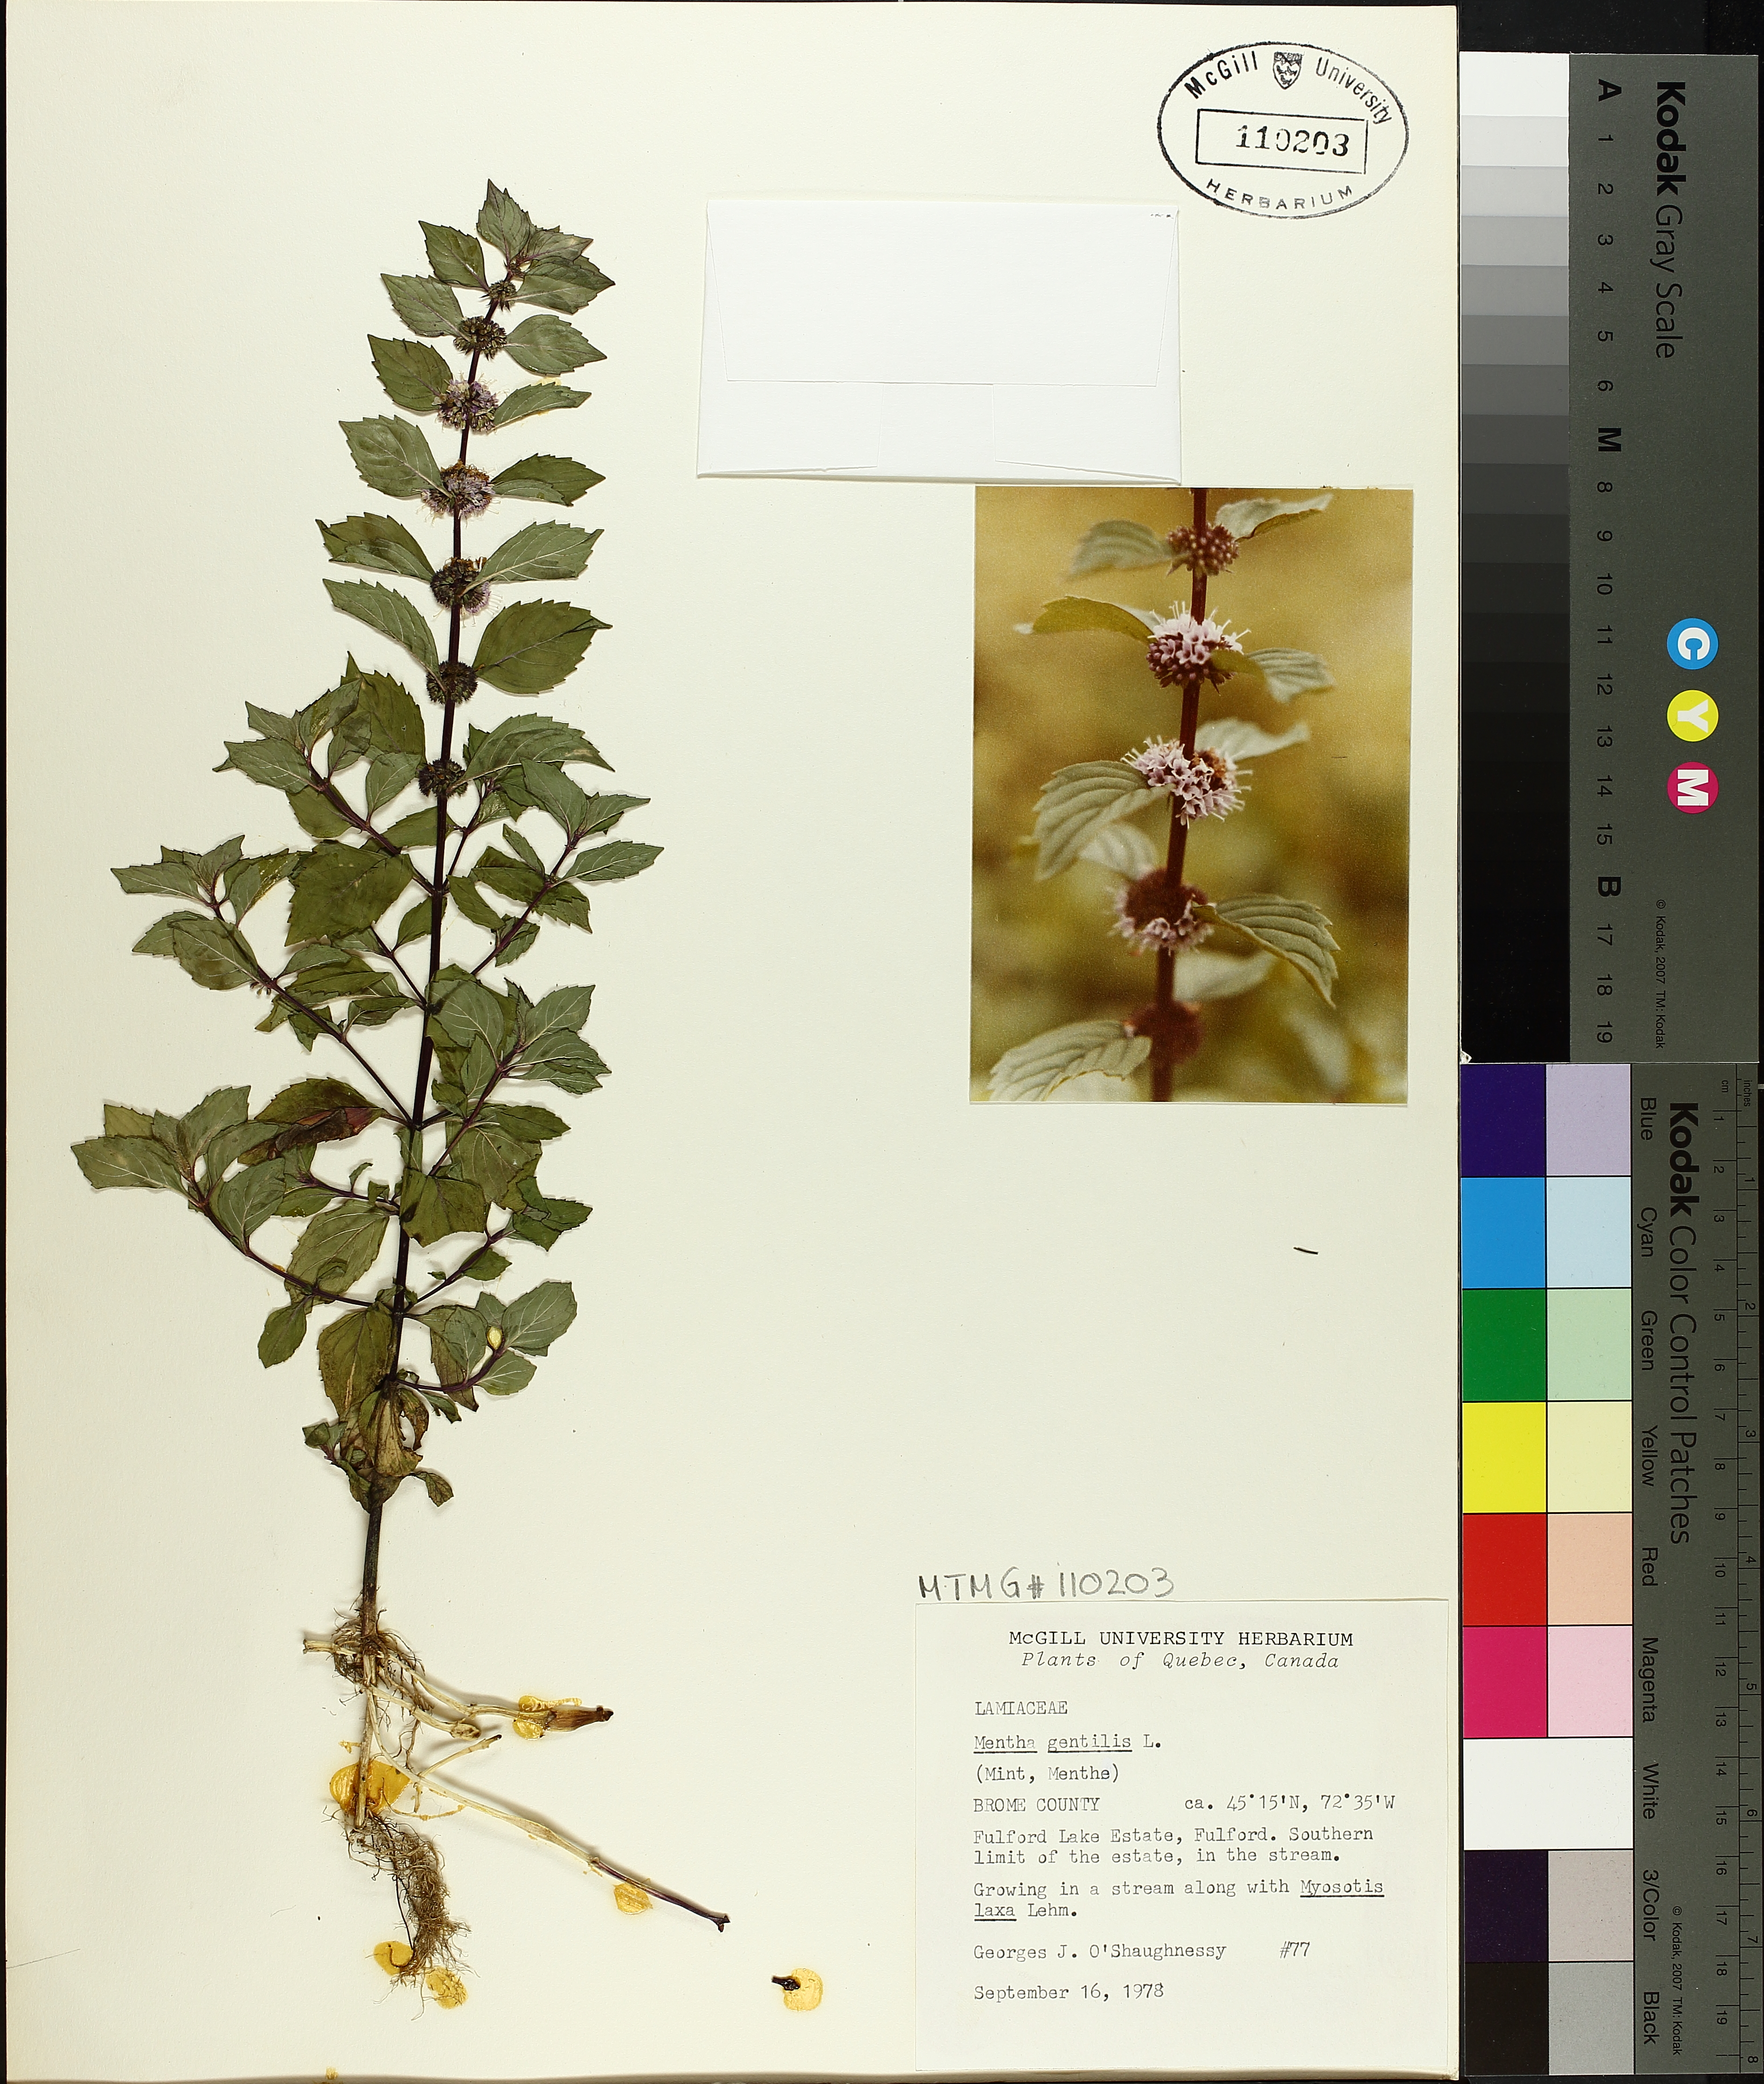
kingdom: Plantae
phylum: Tracheophyta
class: Magnoliopsida
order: Lamiales
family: Lamiaceae
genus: Mentha
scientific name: Mentha arvensis
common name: Corn mint
